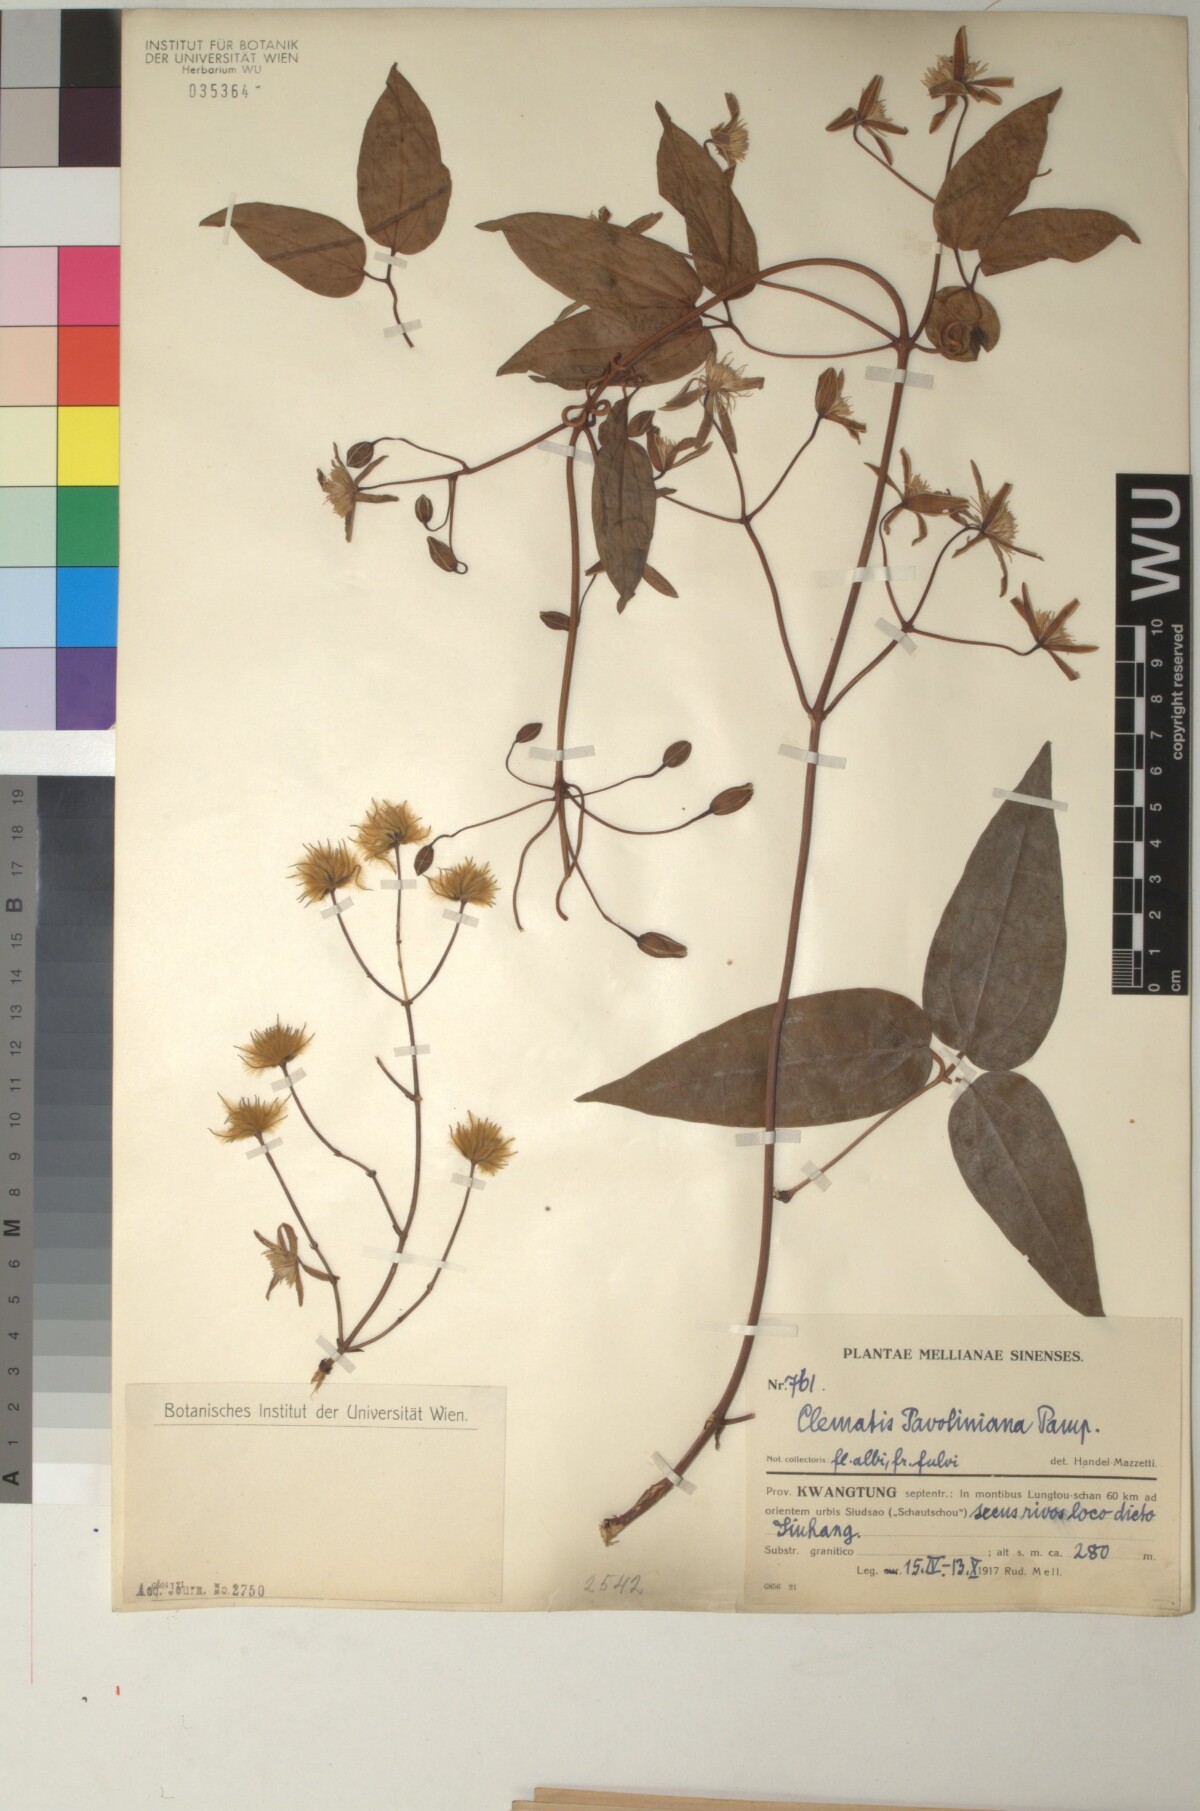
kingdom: Plantae
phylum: Tracheophyta
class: Magnoliopsida
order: Ranunculales
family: Ranunculaceae
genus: Clematis
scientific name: Clematis finetiana
